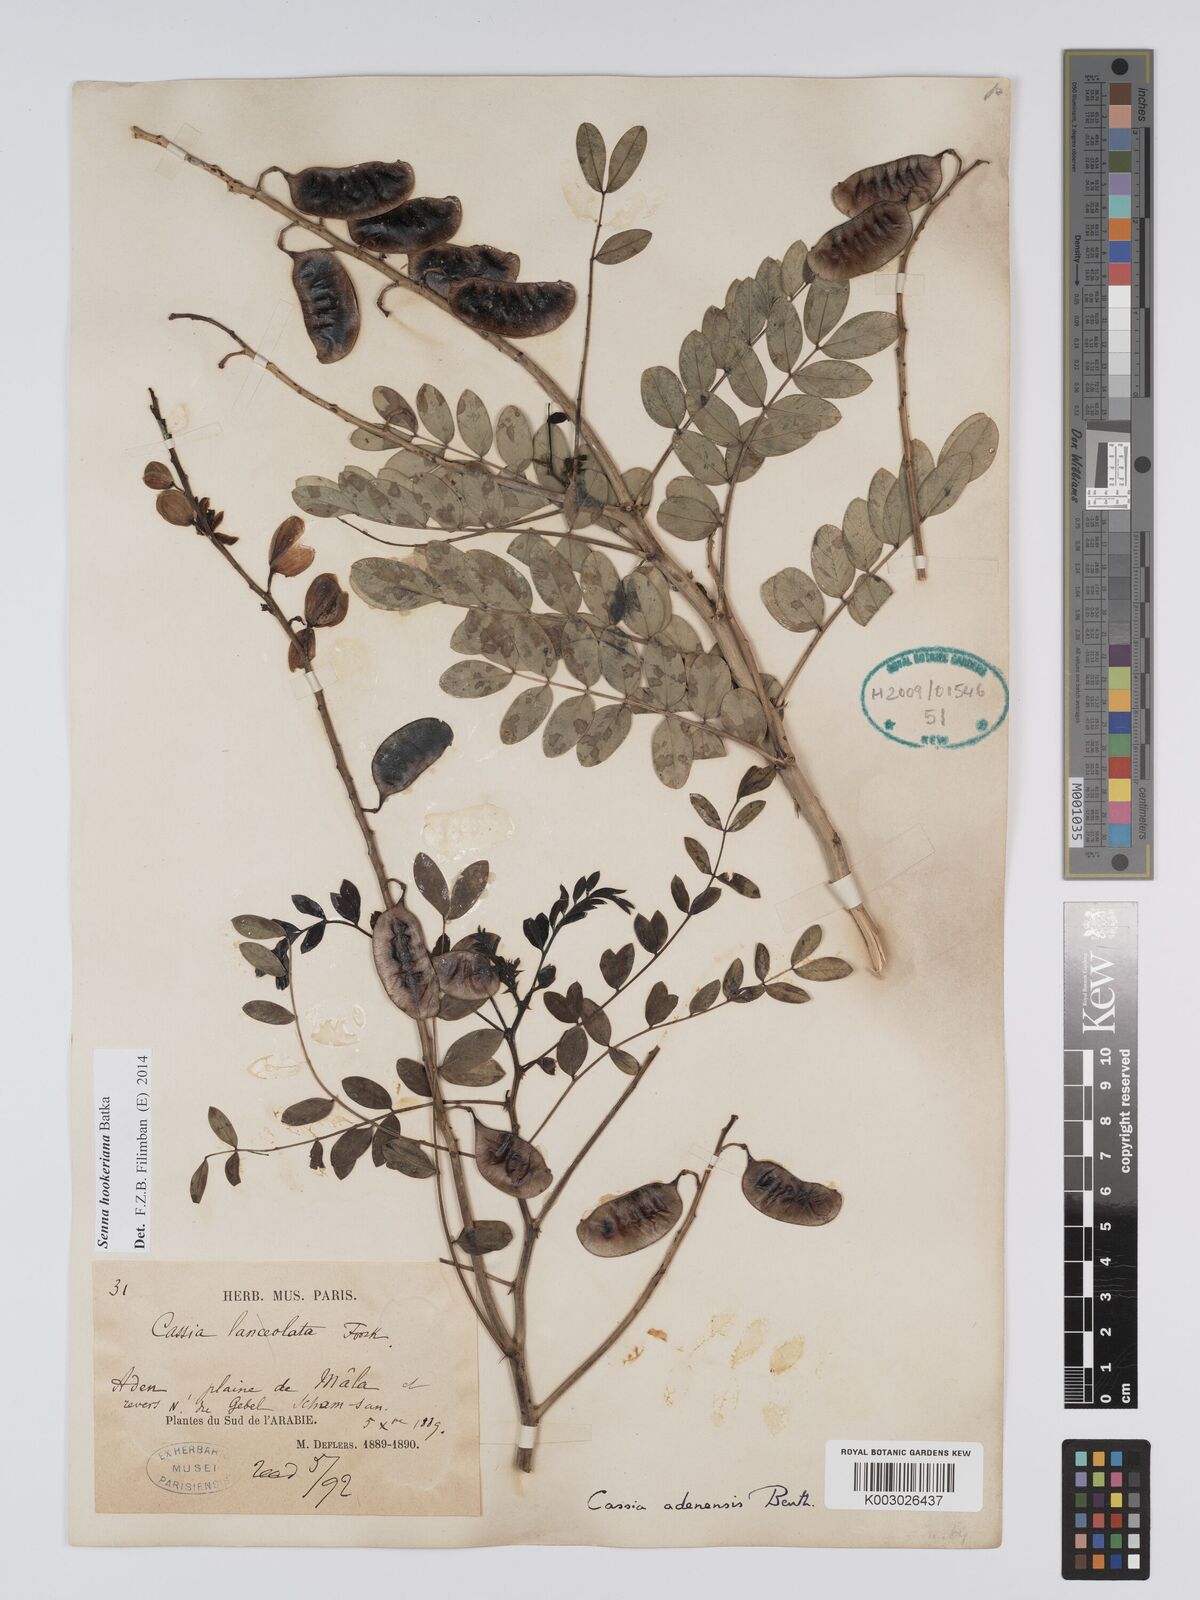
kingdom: Plantae
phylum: Tracheophyta
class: Magnoliopsida
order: Fabales
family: Fabaceae
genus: Senna
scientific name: Senna birostris
